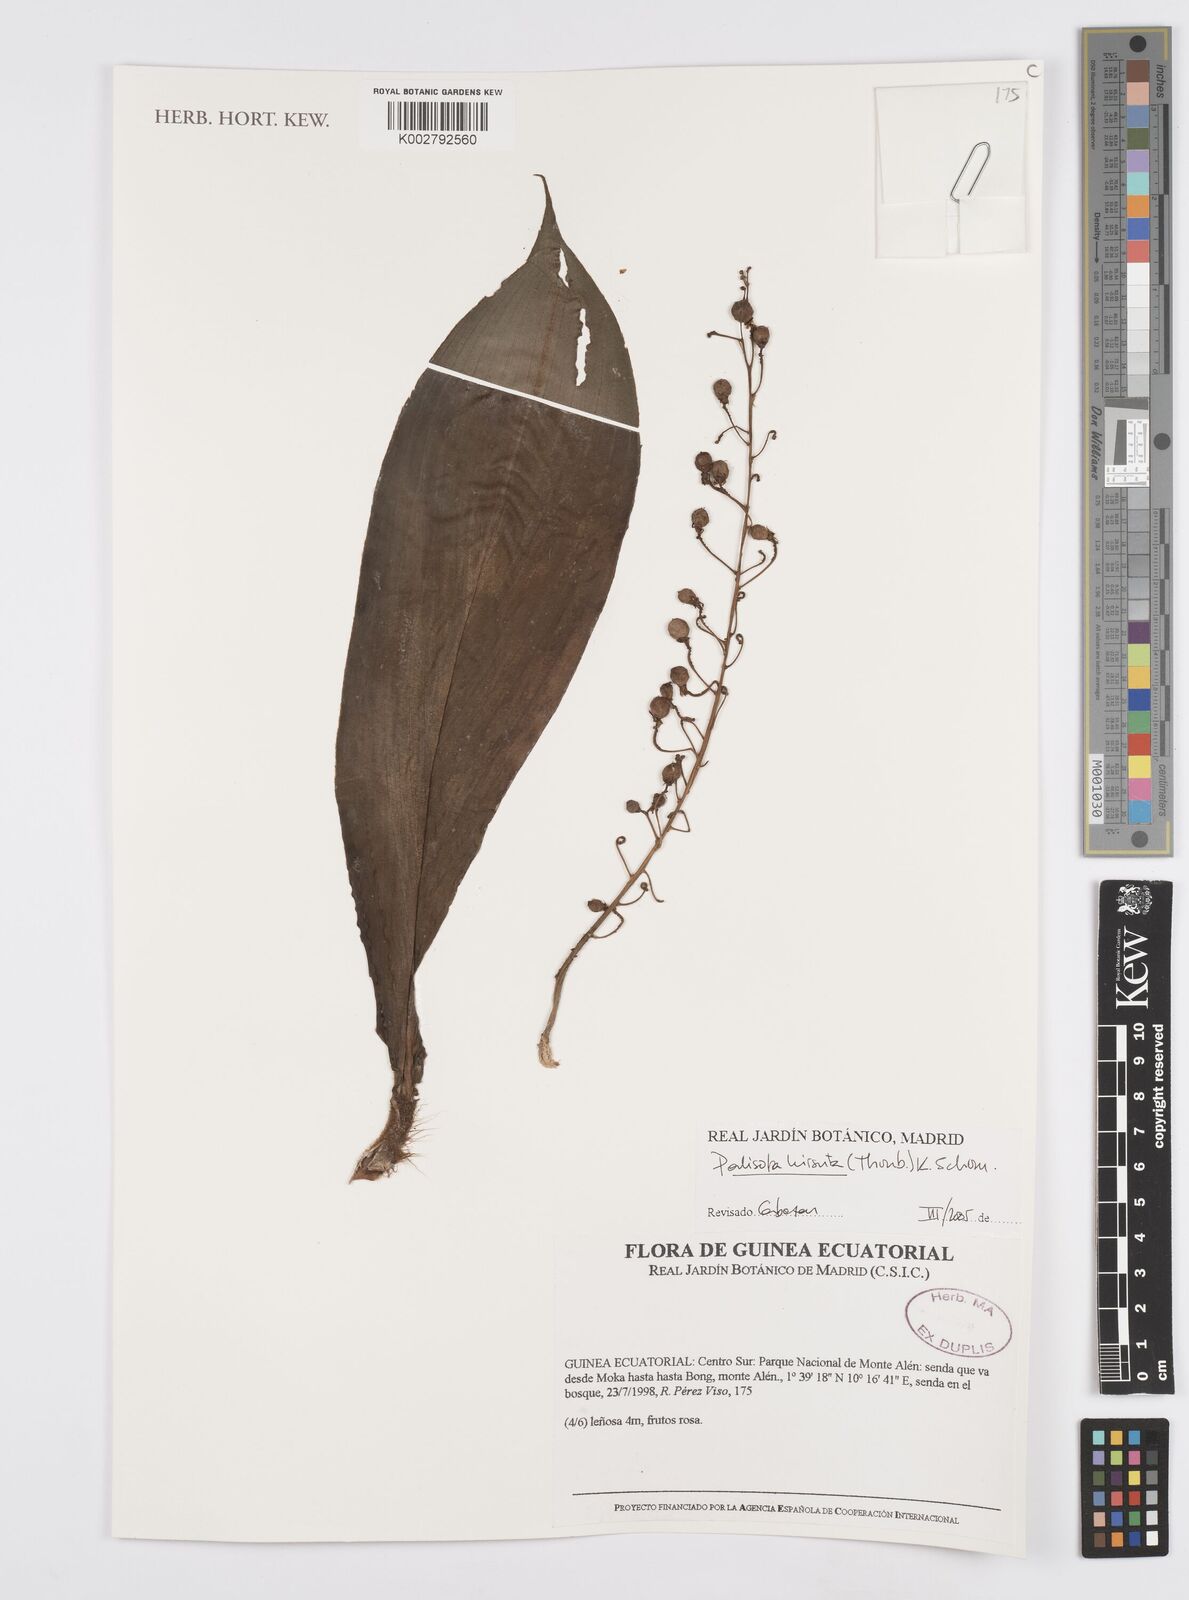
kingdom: Plantae
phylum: Tracheophyta
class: Liliopsida
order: Commelinales
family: Commelinaceae
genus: Palisota
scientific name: Palisota hirsuta
